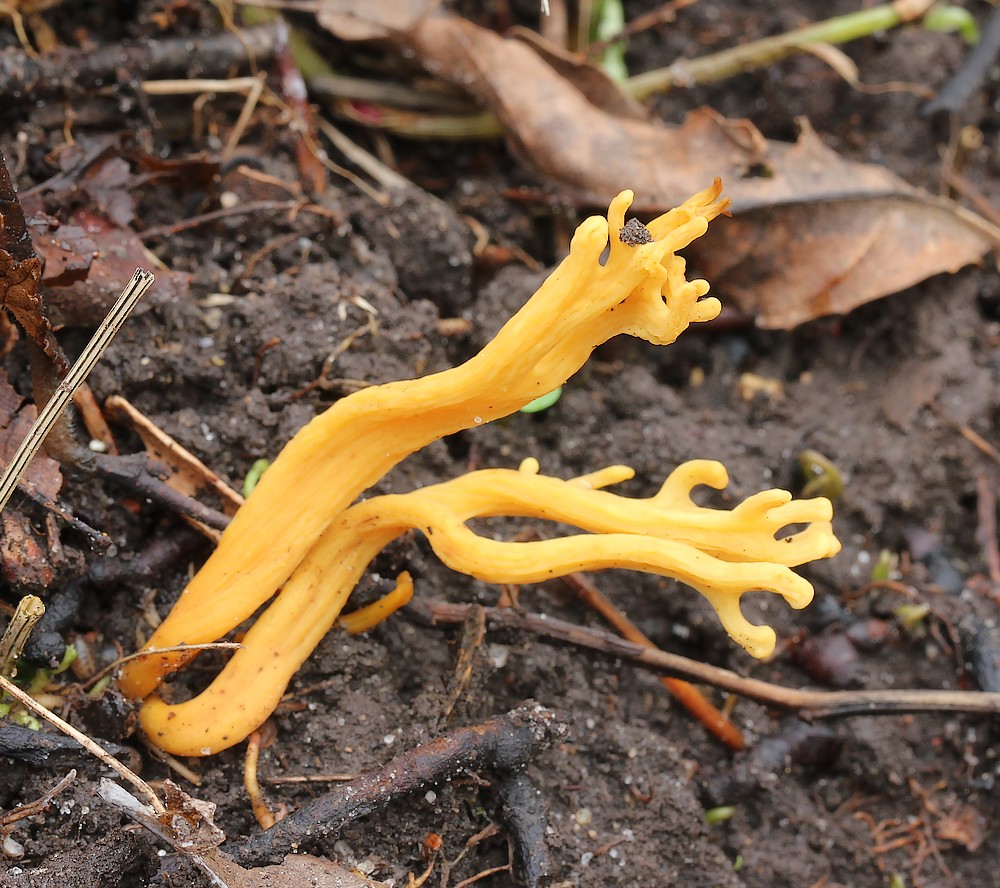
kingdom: Fungi
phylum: Basidiomycota
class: Agaricomycetes
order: Agaricales
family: Clavariaceae
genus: Clavulinopsis
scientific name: Clavulinopsis corniculata
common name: eng-køllesvamp
